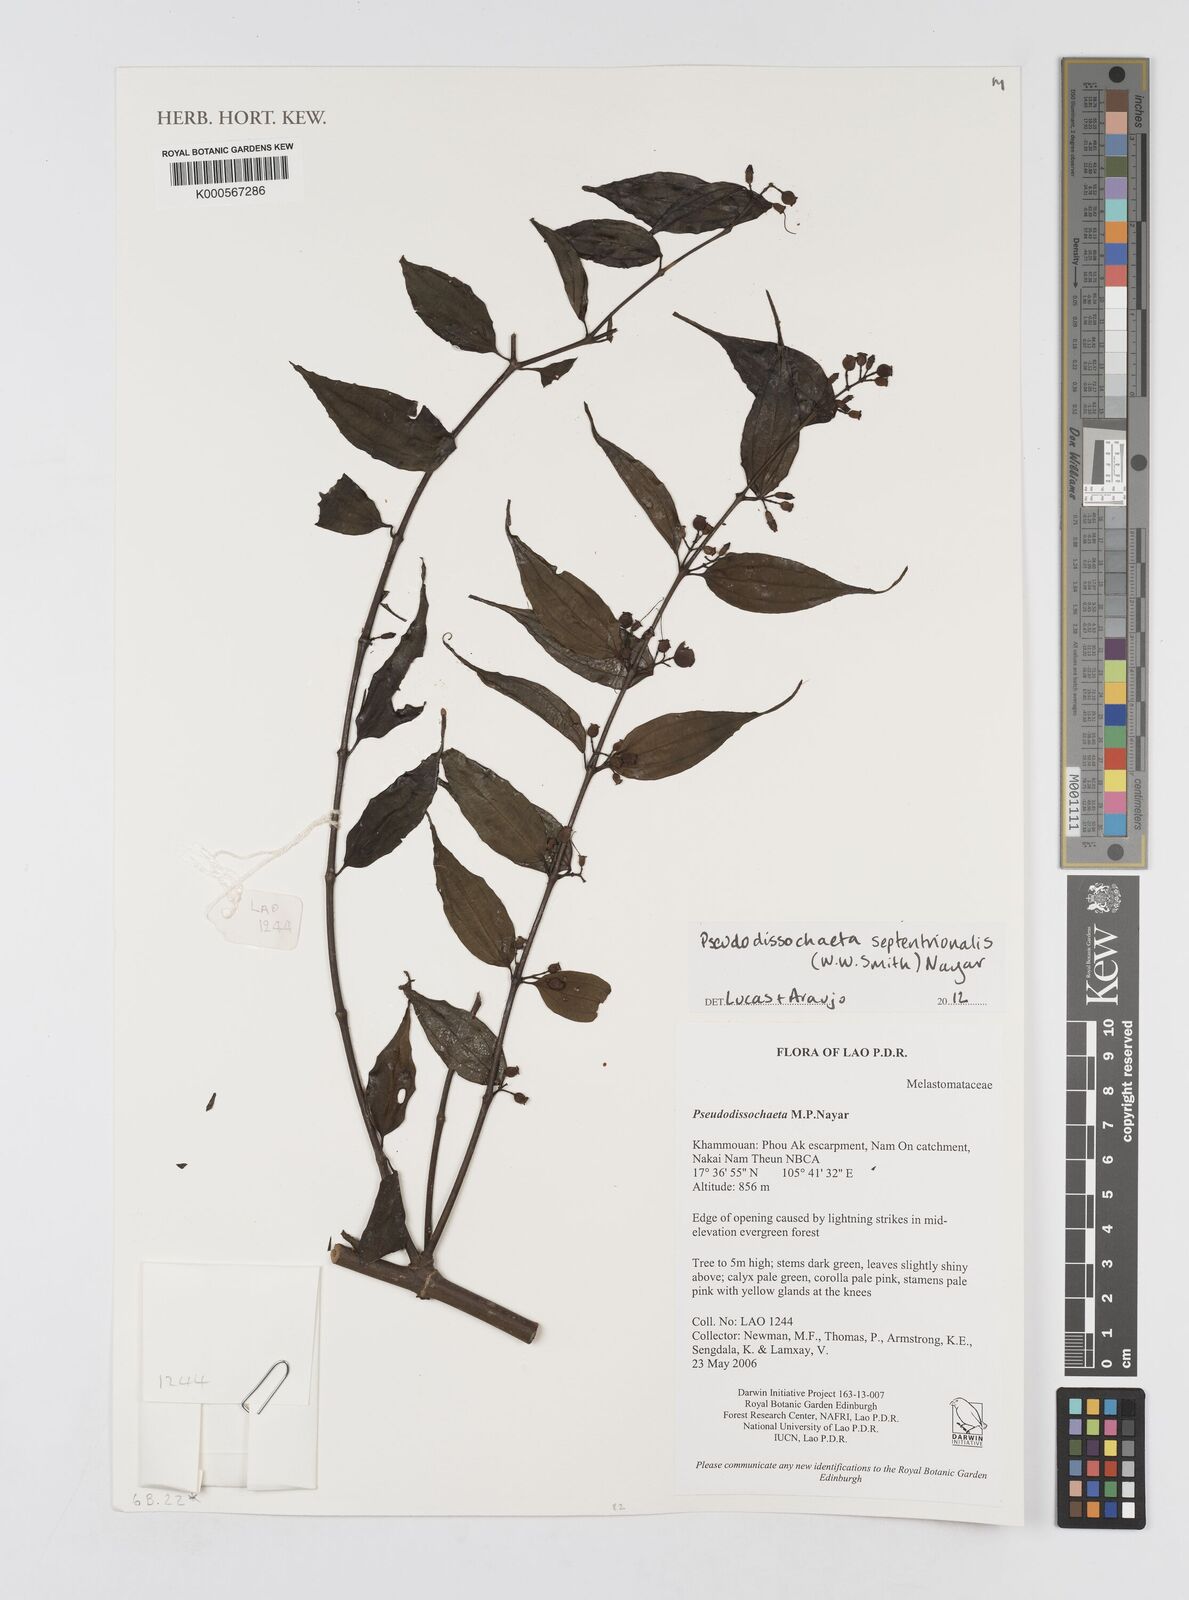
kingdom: Plantae
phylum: Tracheophyta
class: Magnoliopsida
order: Myrtales
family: Melastomataceae
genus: Pseudodissochaeta
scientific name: Pseudodissochaeta septentrionalis
